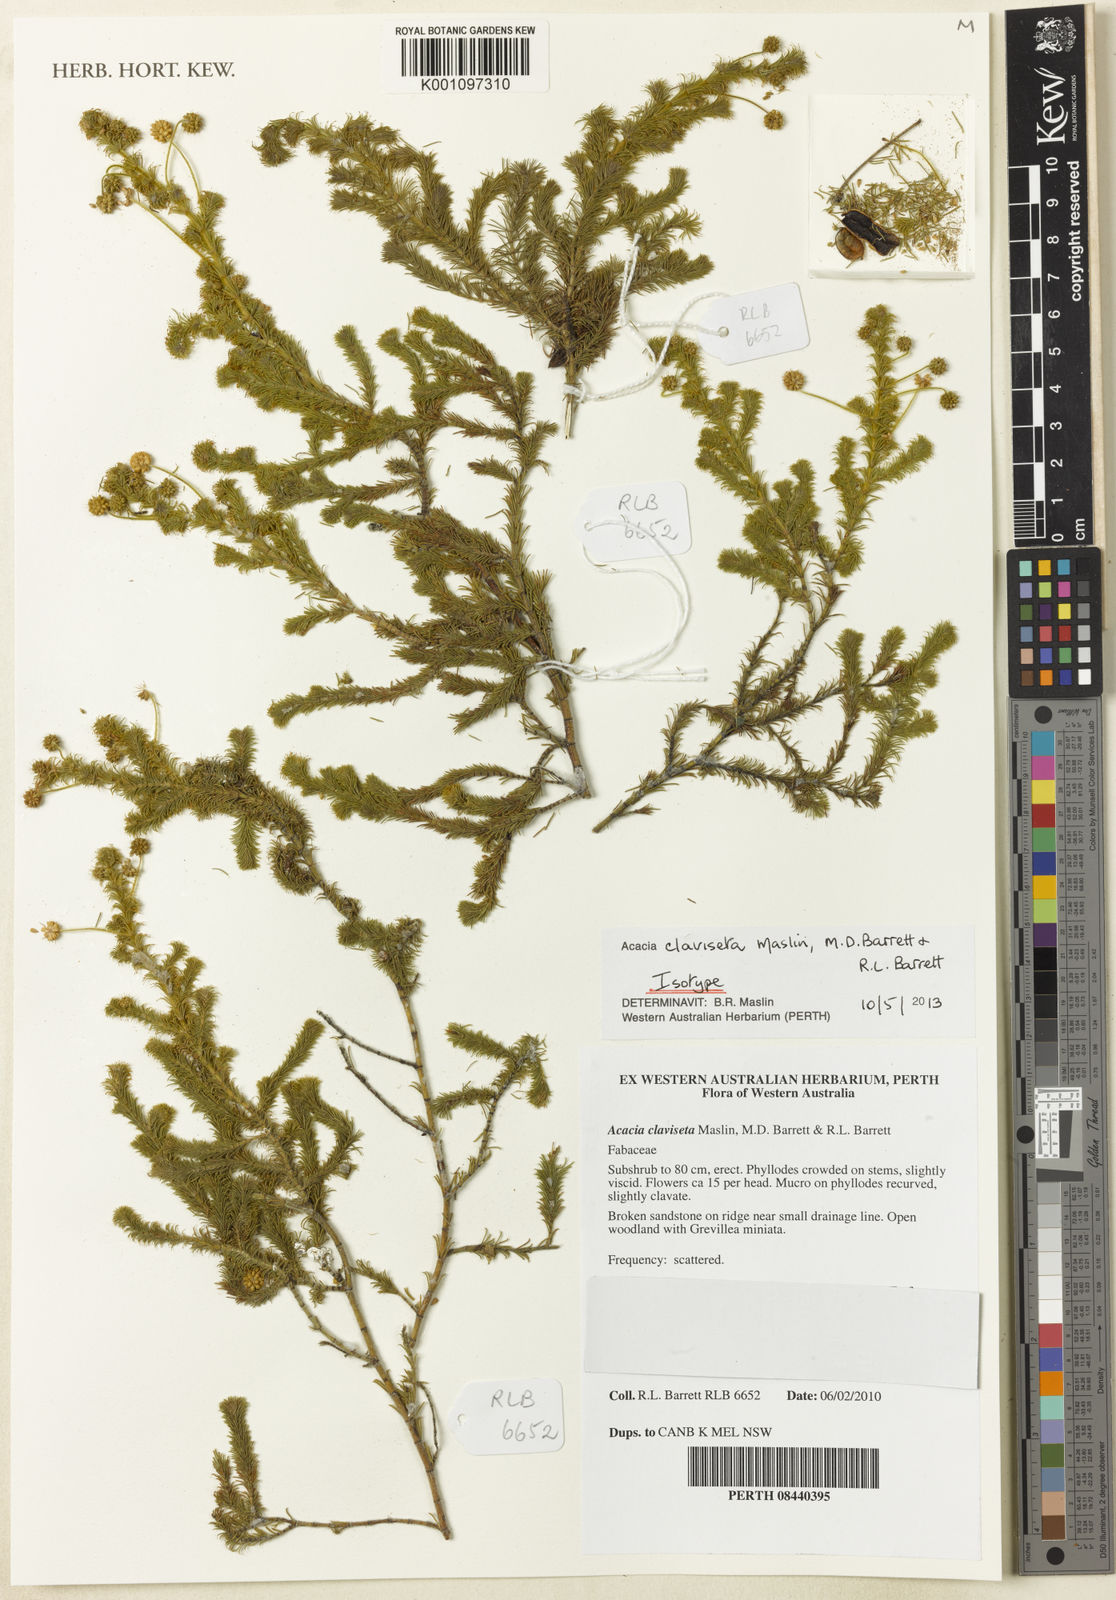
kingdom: Plantae
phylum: Tracheophyta
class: Magnoliopsida
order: Fabales
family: Fabaceae
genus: Acacia
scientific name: Acacia claviseta
